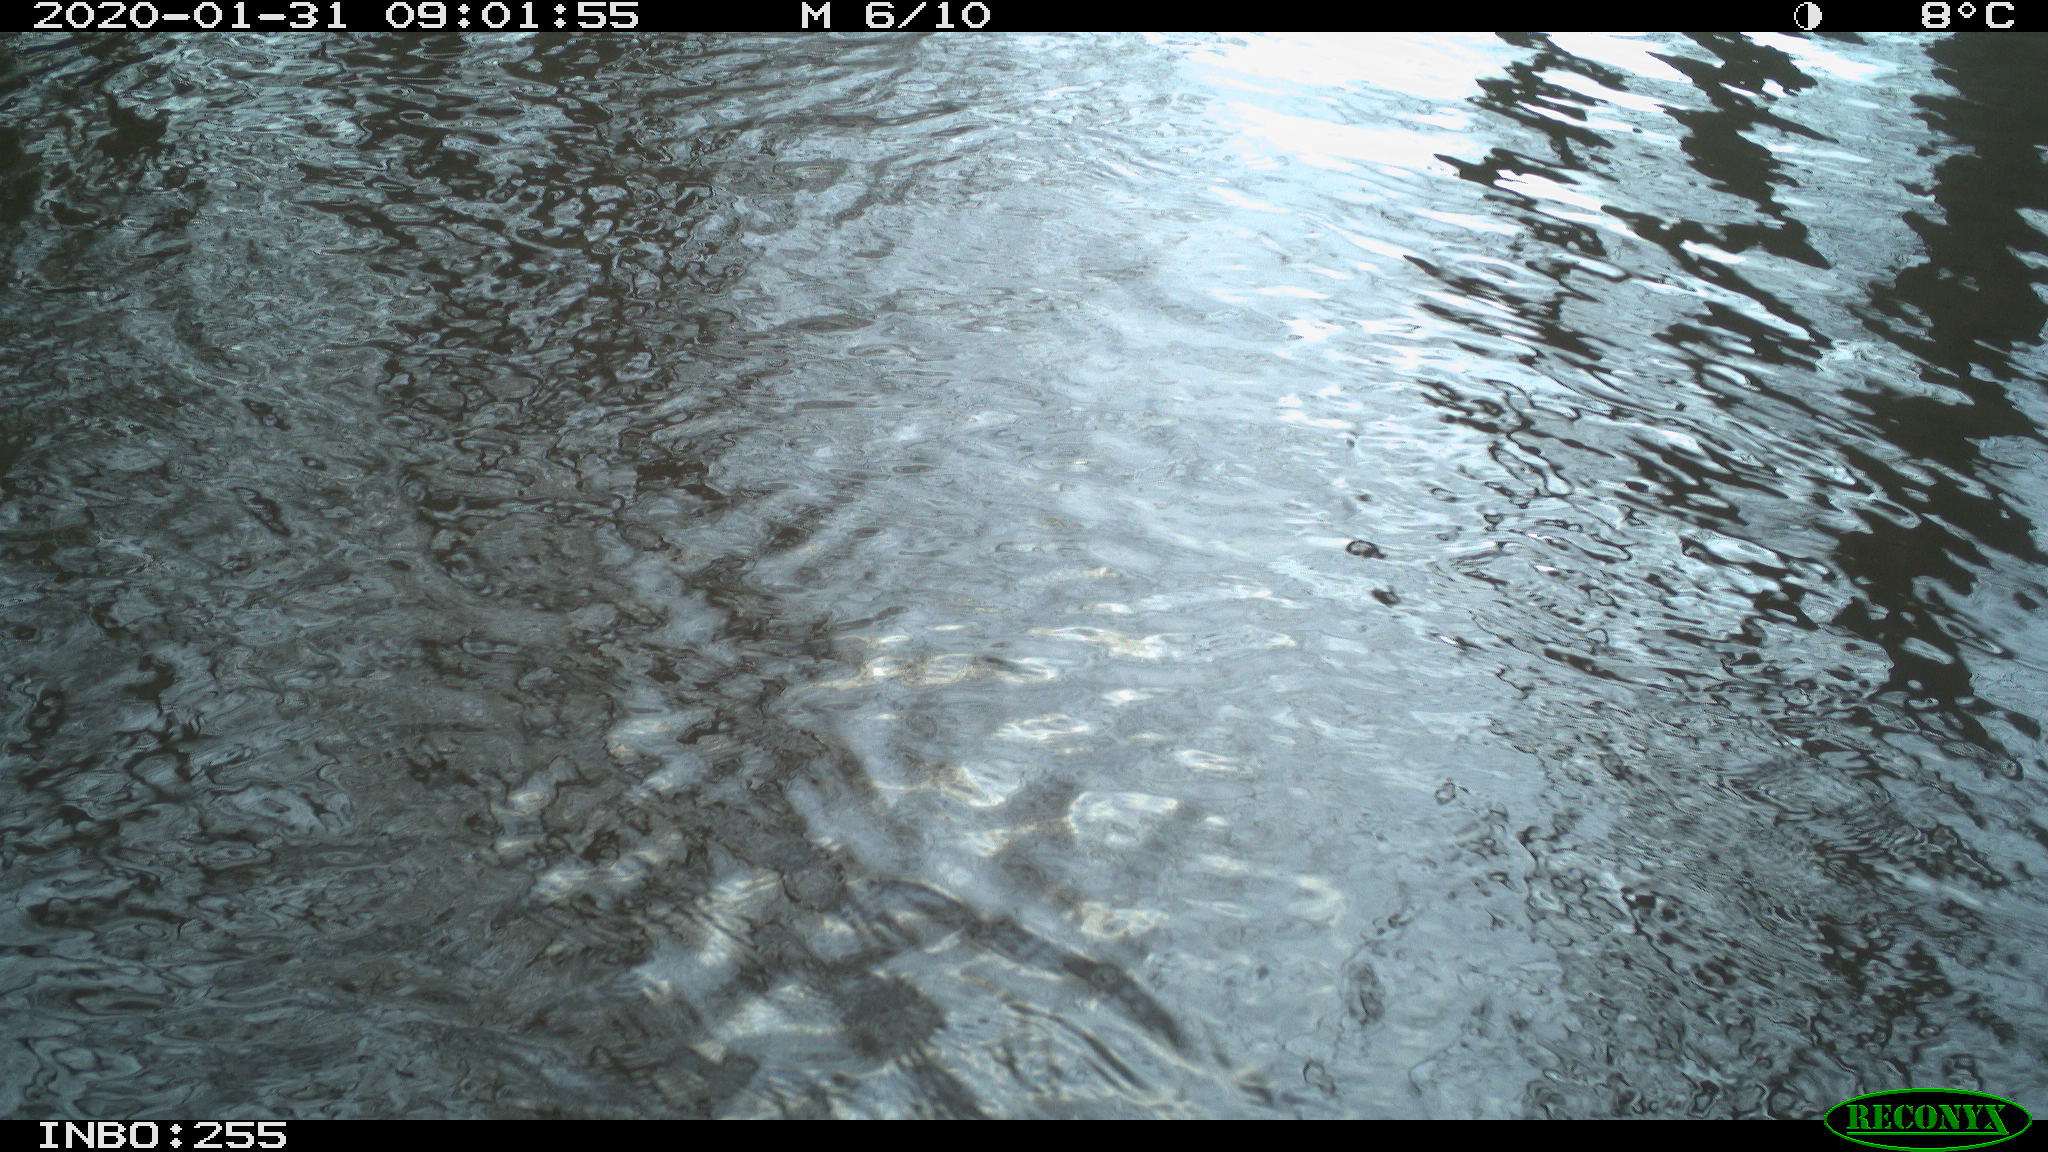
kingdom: Animalia
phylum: Chordata
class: Aves
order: Gruiformes
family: Rallidae
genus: Fulica
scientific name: Fulica atra
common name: Eurasian coot
